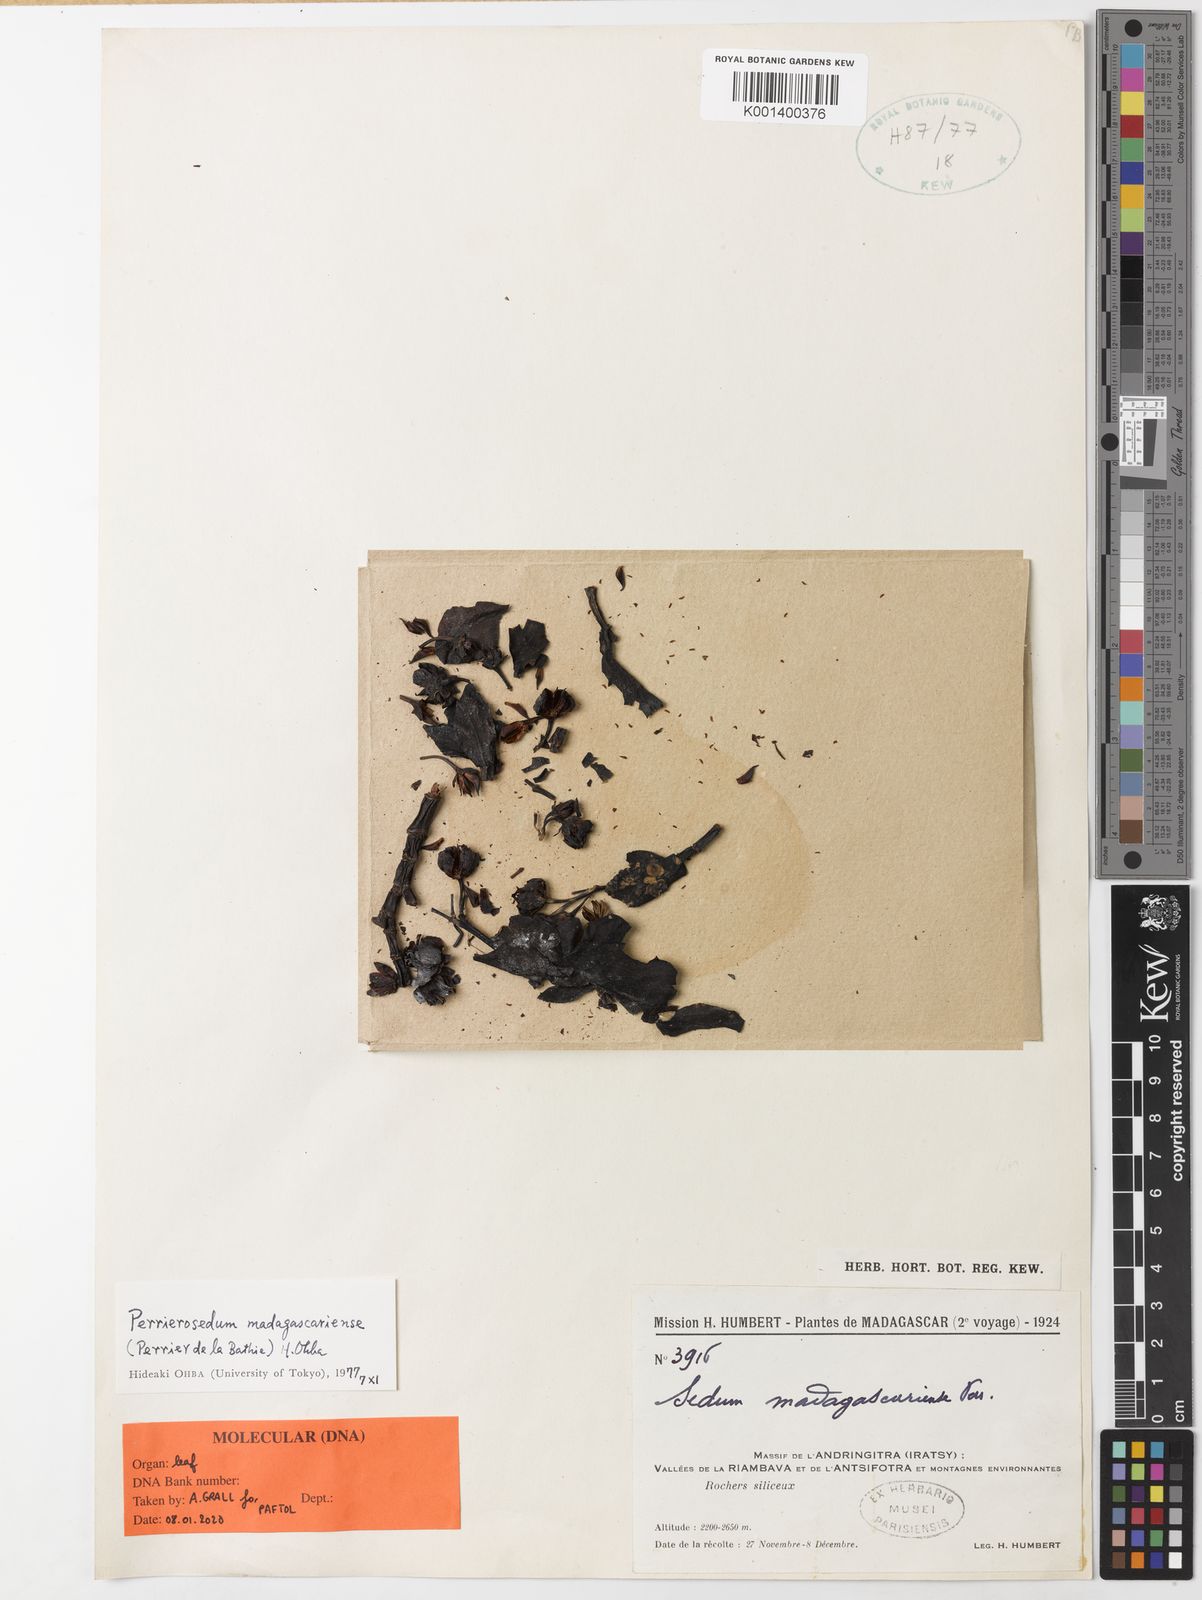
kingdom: Plantae
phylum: Tracheophyta
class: Magnoliopsida
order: Saxifragales
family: Crassulaceae
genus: Perrierosedum
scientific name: Perrierosedum madagascariense
